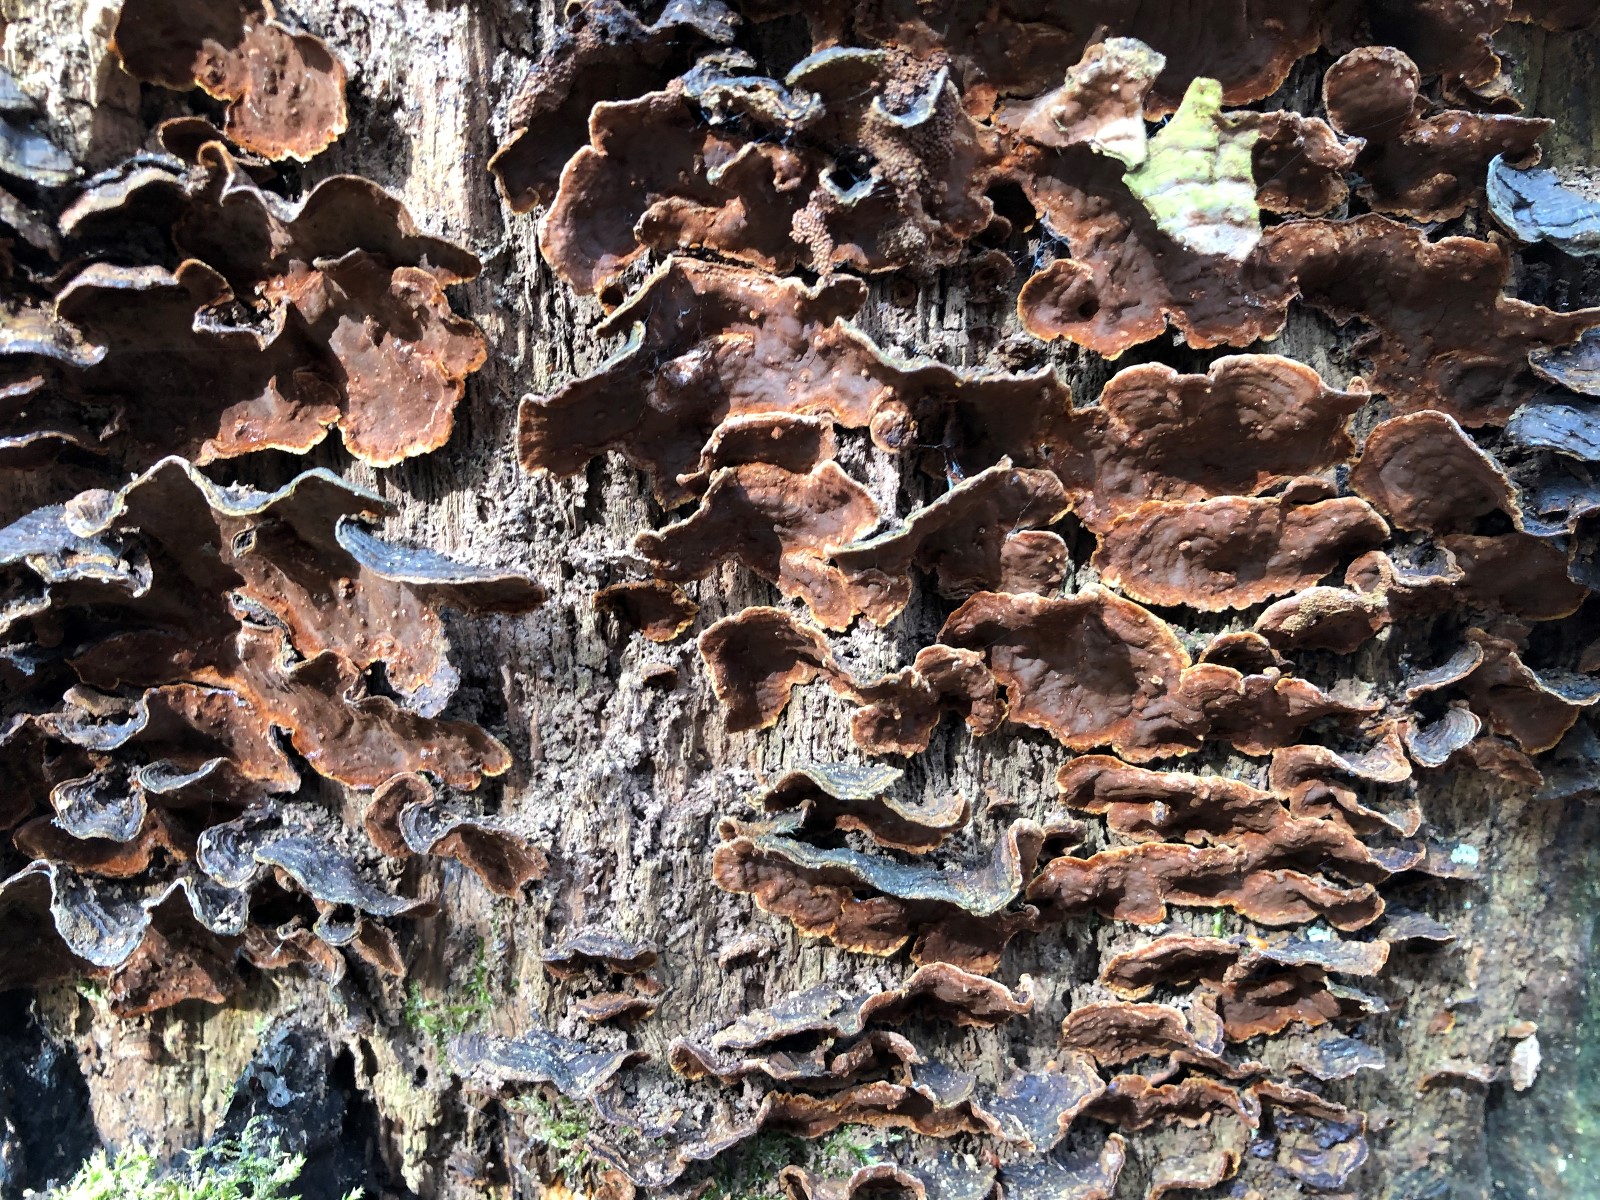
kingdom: Fungi
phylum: Basidiomycota
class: Agaricomycetes
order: Hymenochaetales
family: Hymenochaetaceae
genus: Hymenochaete
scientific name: Hymenochaete rubiginosa
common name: stiv ruslædersvamp
